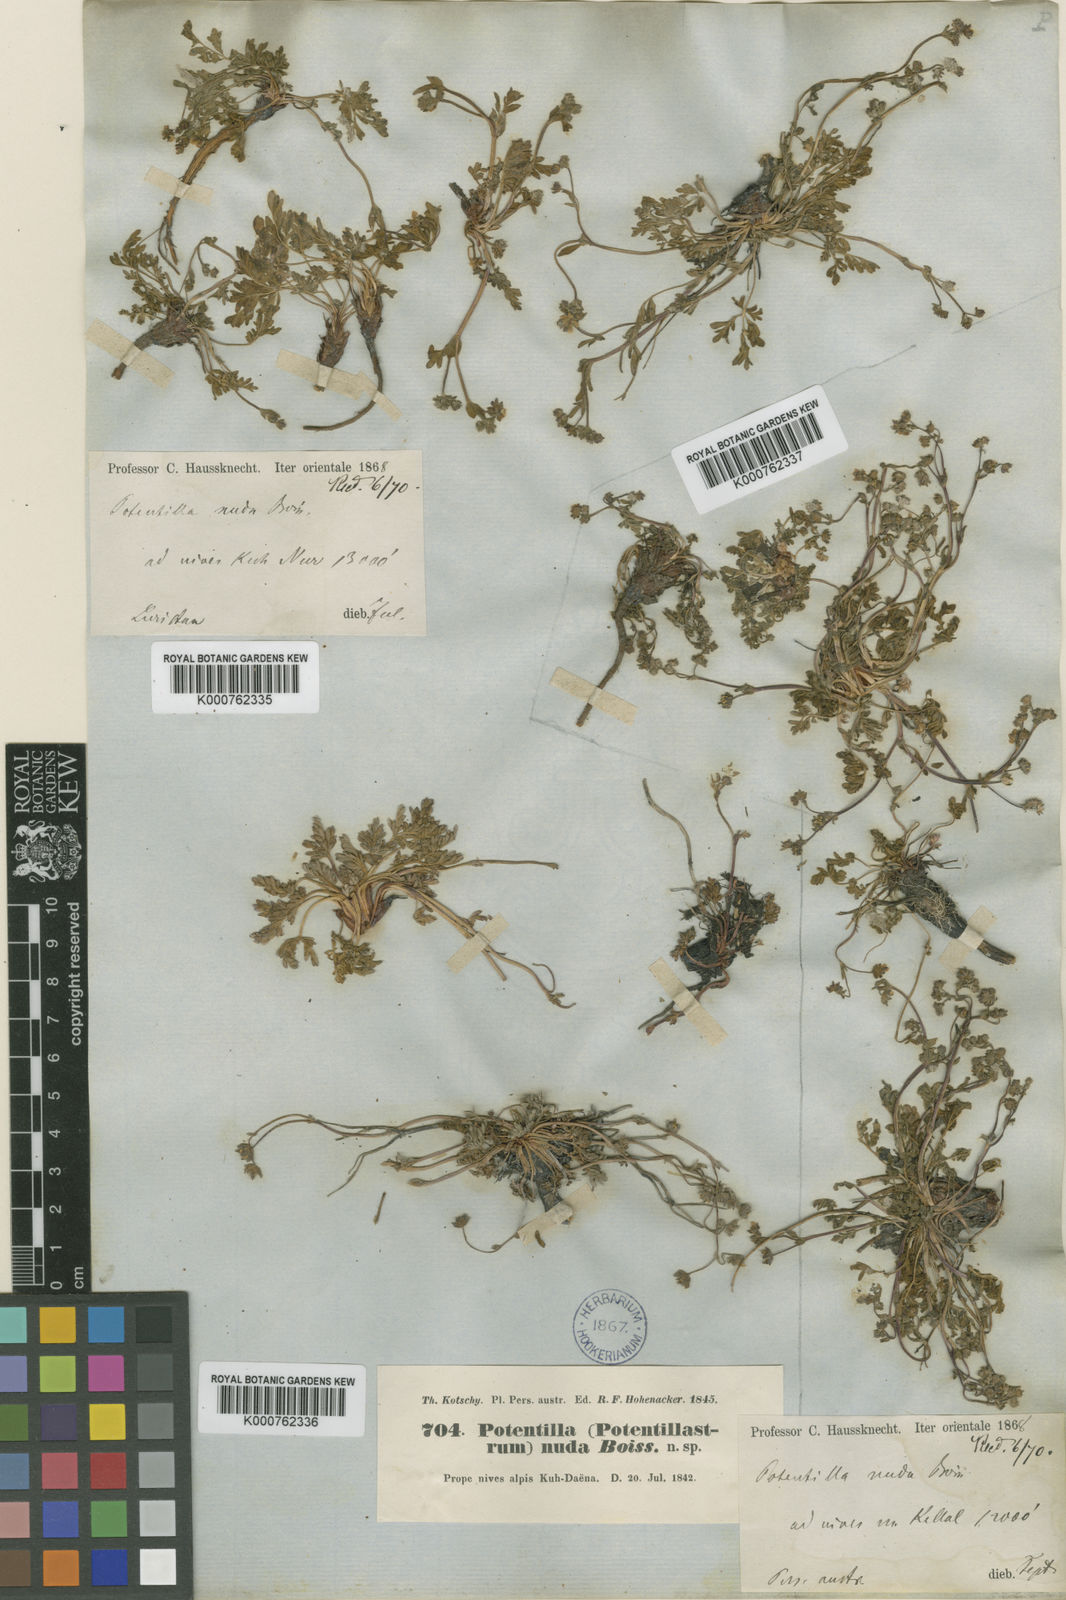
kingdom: Plantae
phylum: Tracheophyta
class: Magnoliopsida
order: Rosales
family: Rosaceae
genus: Potentilla
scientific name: Potentilla nuda
